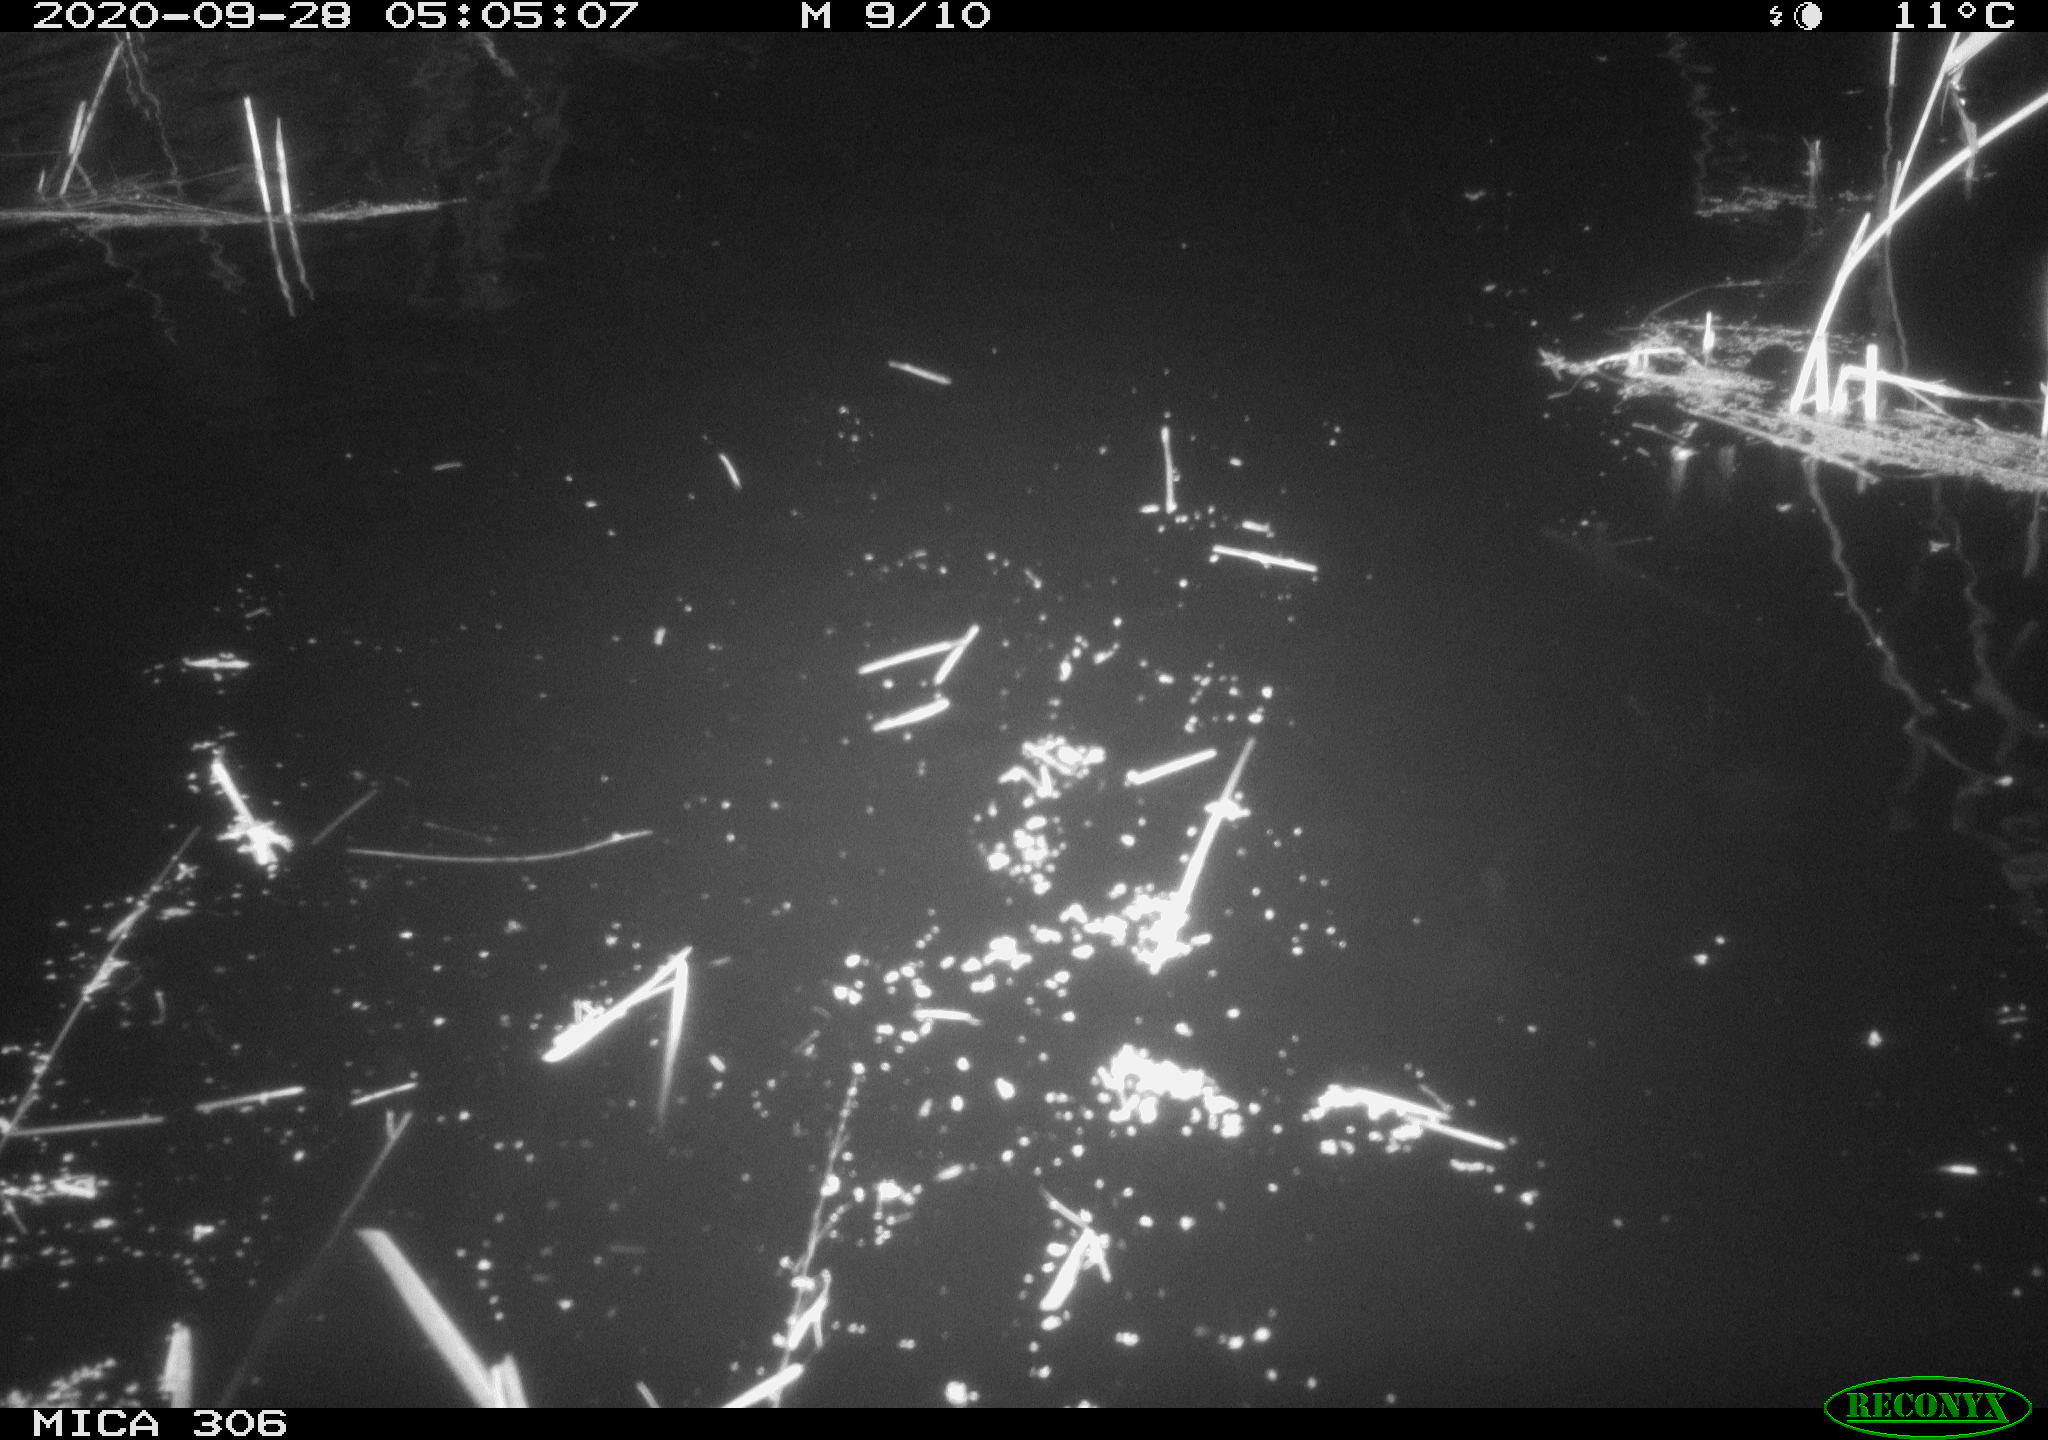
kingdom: Animalia
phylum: Chordata
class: Mammalia
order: Rodentia
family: Cricetidae
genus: Ondatra
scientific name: Ondatra zibethicus
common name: Muskrat
